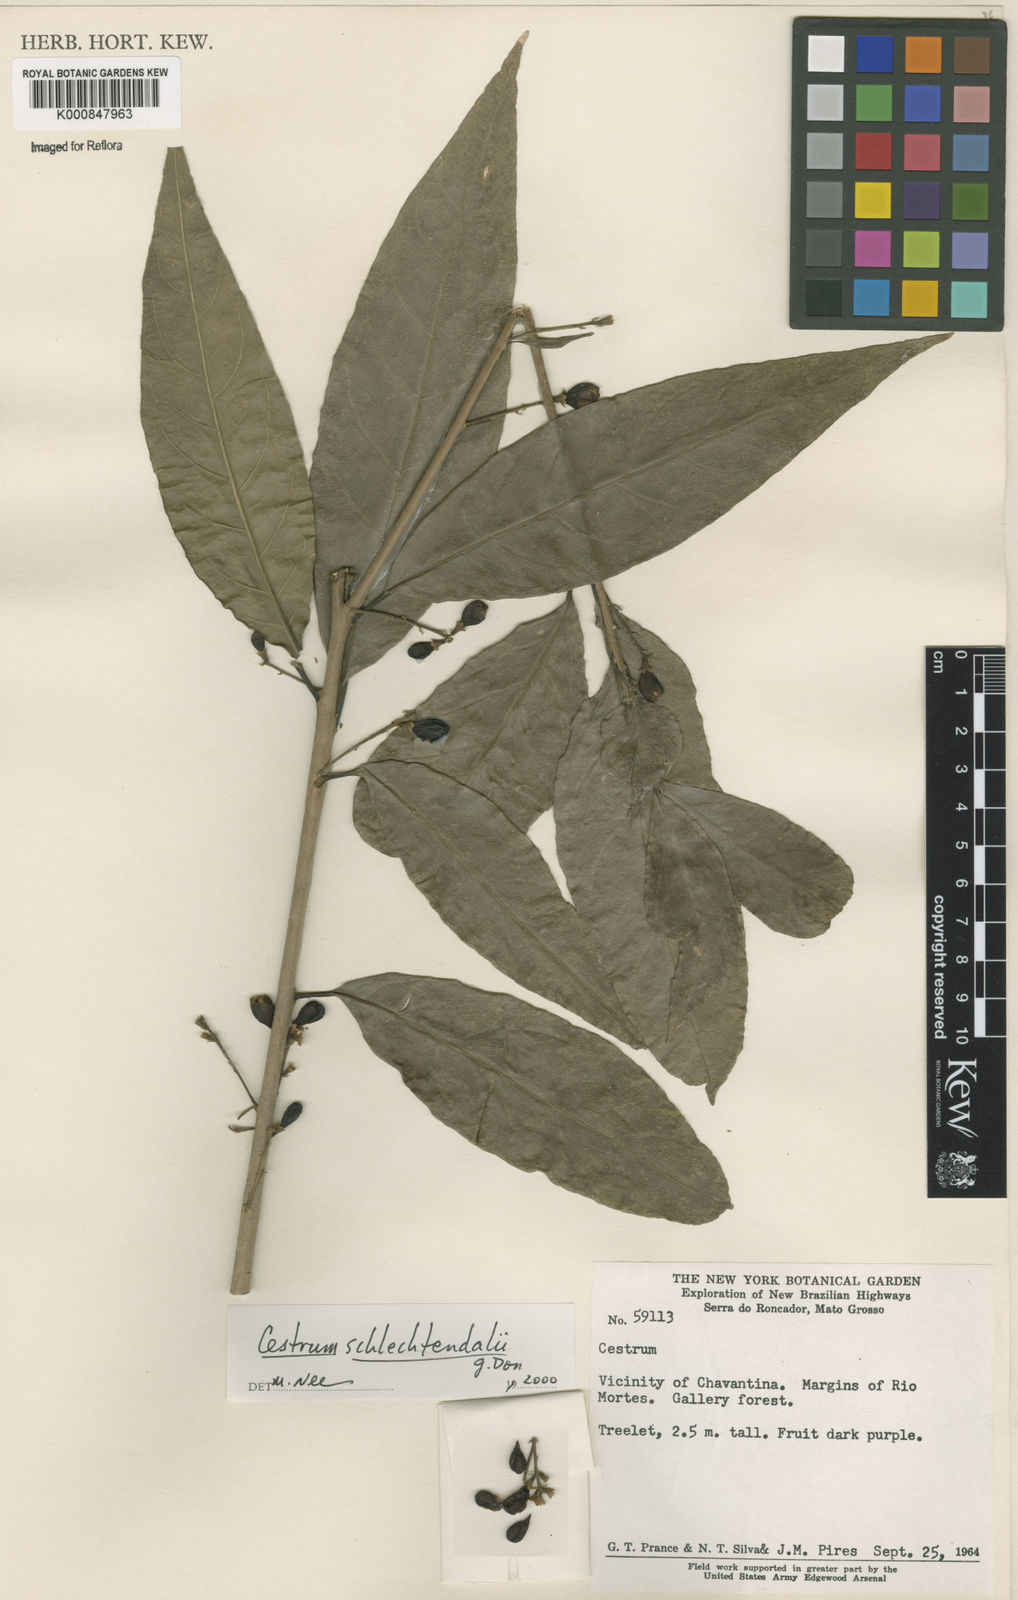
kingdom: Plantae
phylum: Tracheophyta
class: Magnoliopsida
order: Solanales
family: Solanaceae
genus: Cestrum
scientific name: Cestrum schlechtendalii
